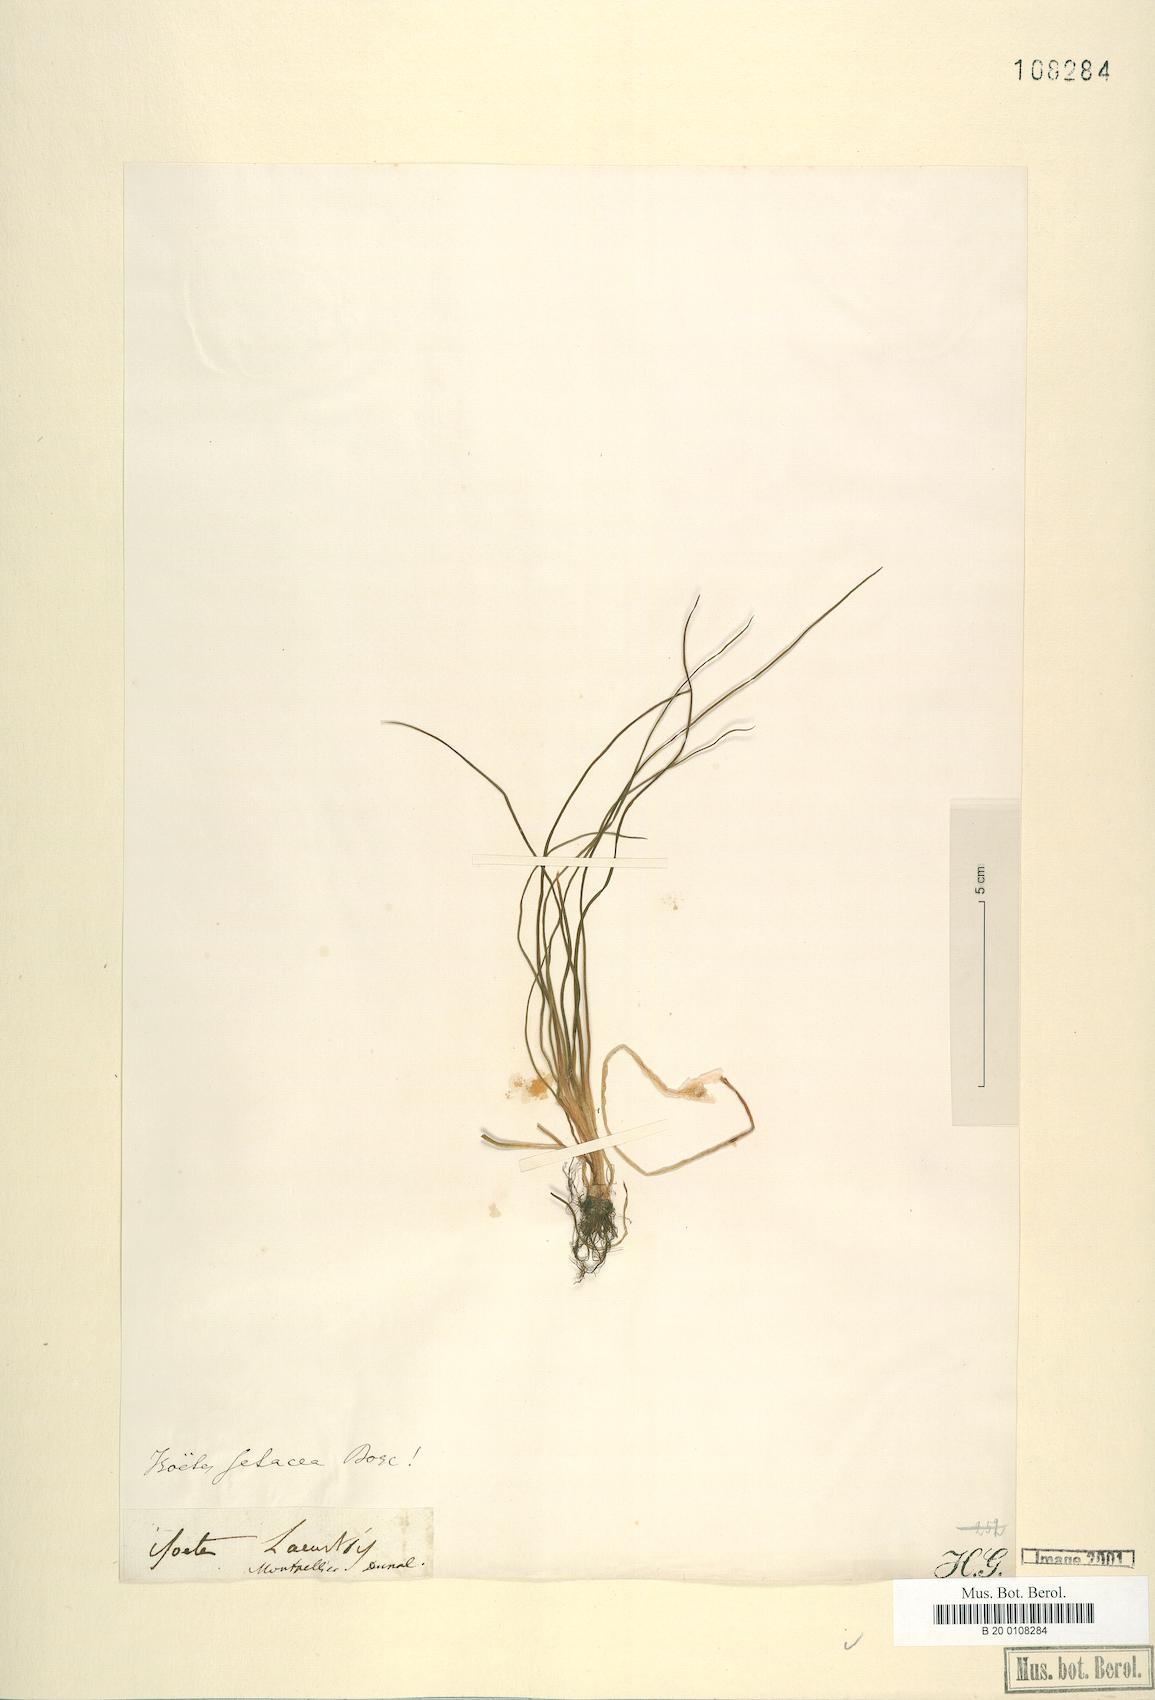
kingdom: Plantae
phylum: Tracheophyta
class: Lycopodiopsida
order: Isoetales
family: Isoetaceae
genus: Isoetes
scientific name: Isoetes lacustris
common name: Common quillwort
